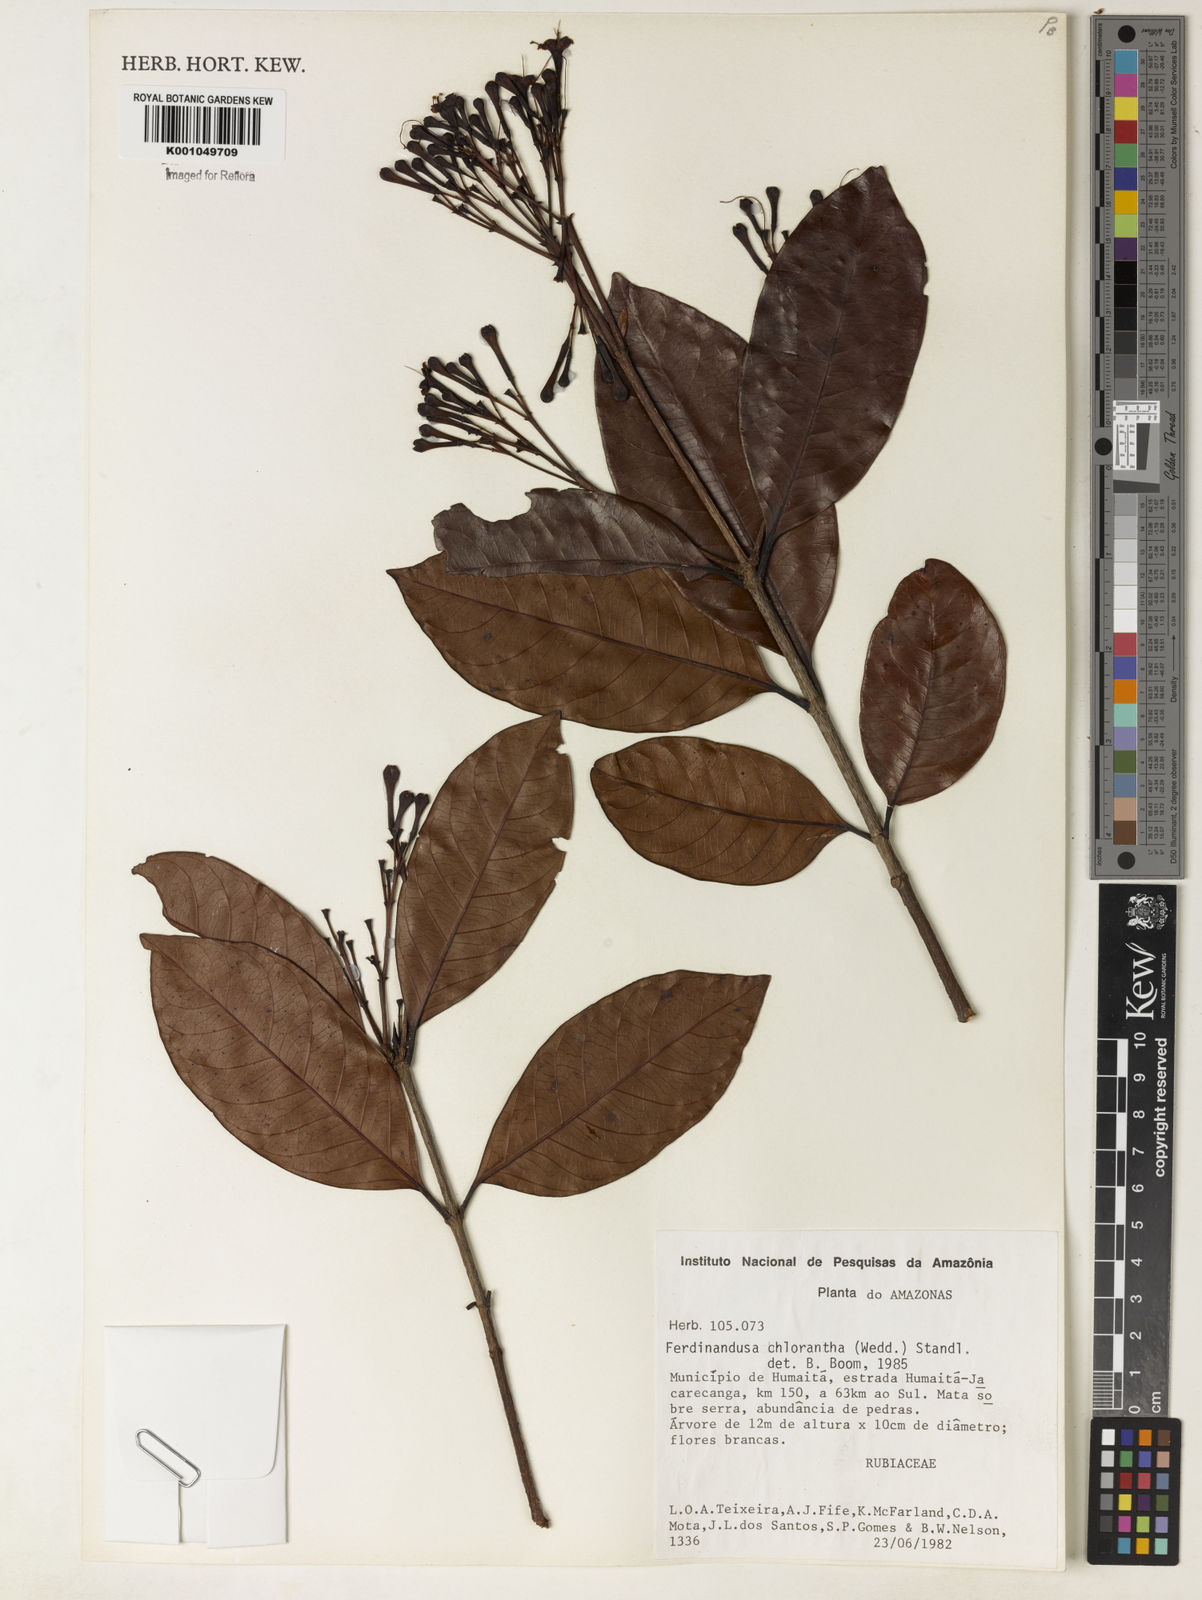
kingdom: Plantae
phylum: Tracheophyta
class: Magnoliopsida
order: Gentianales
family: Rubiaceae
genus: Ferdinandusa
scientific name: Ferdinandusa chlorantha
